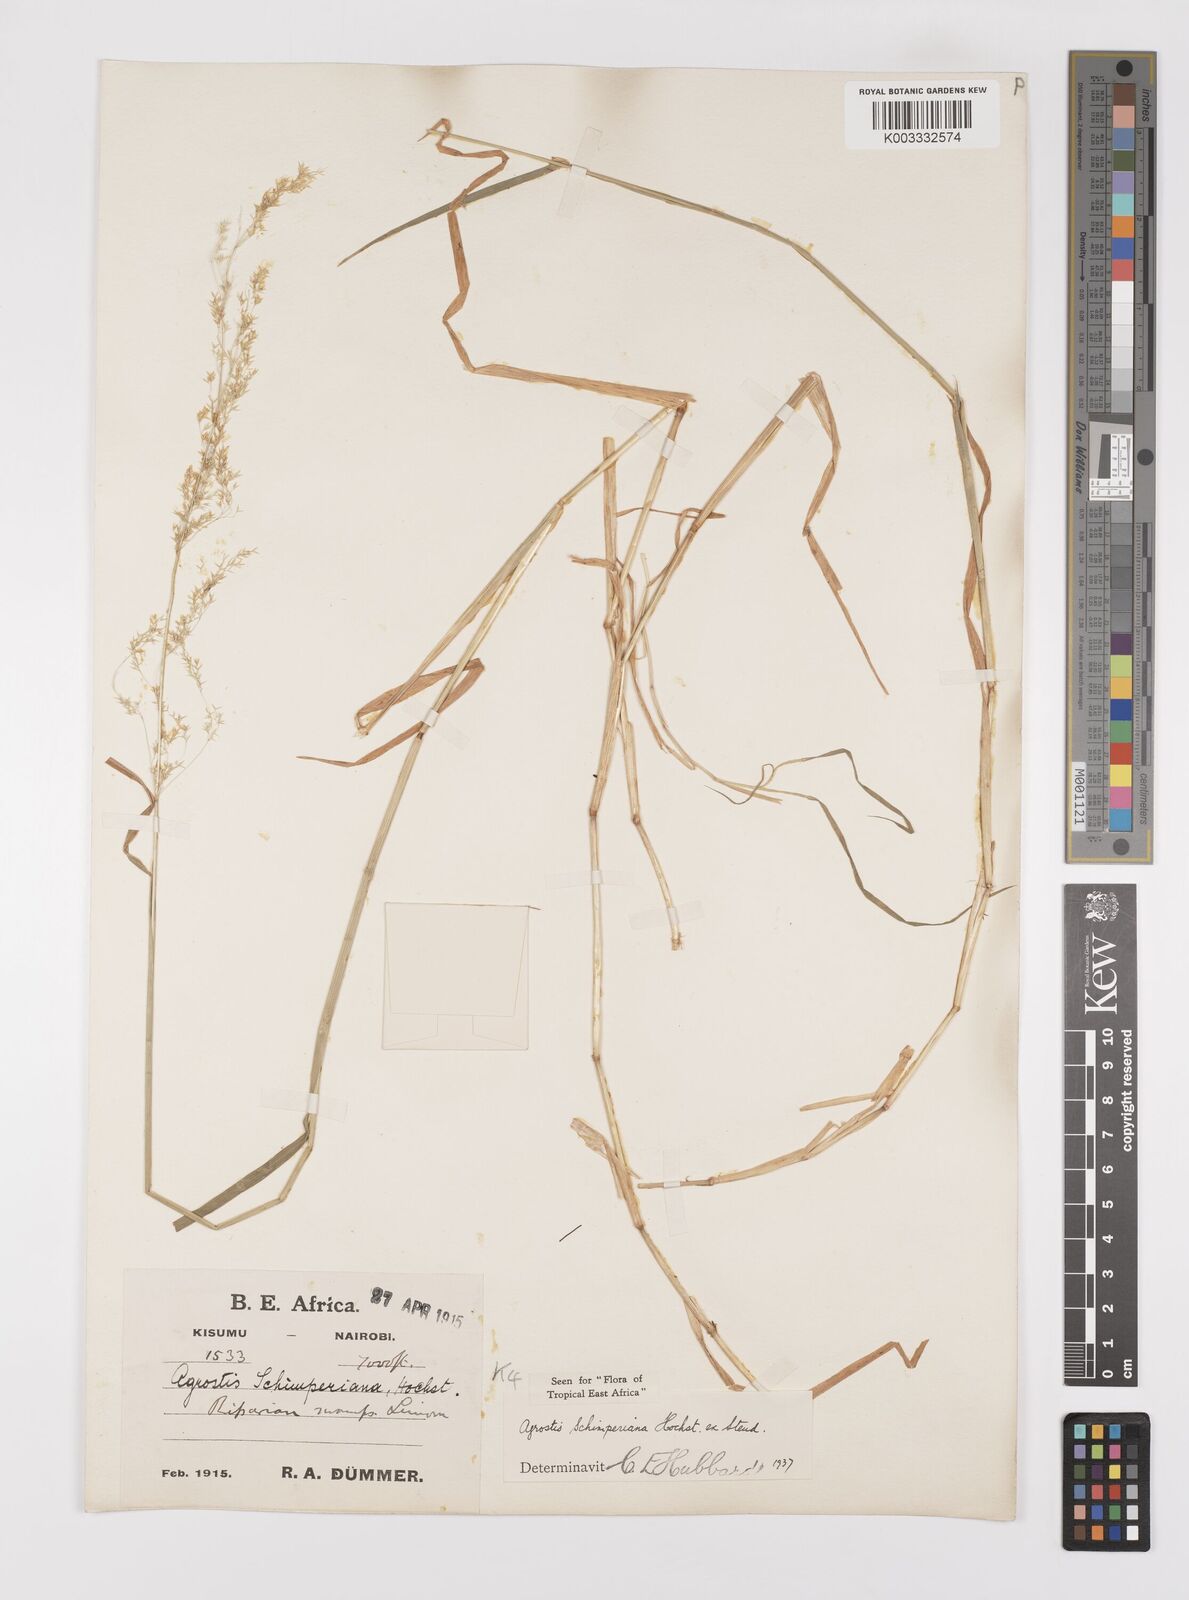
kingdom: Plantae
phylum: Tracheophyta
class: Liliopsida
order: Poales
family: Poaceae
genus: Polypogon
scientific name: Polypogon schimperianus
